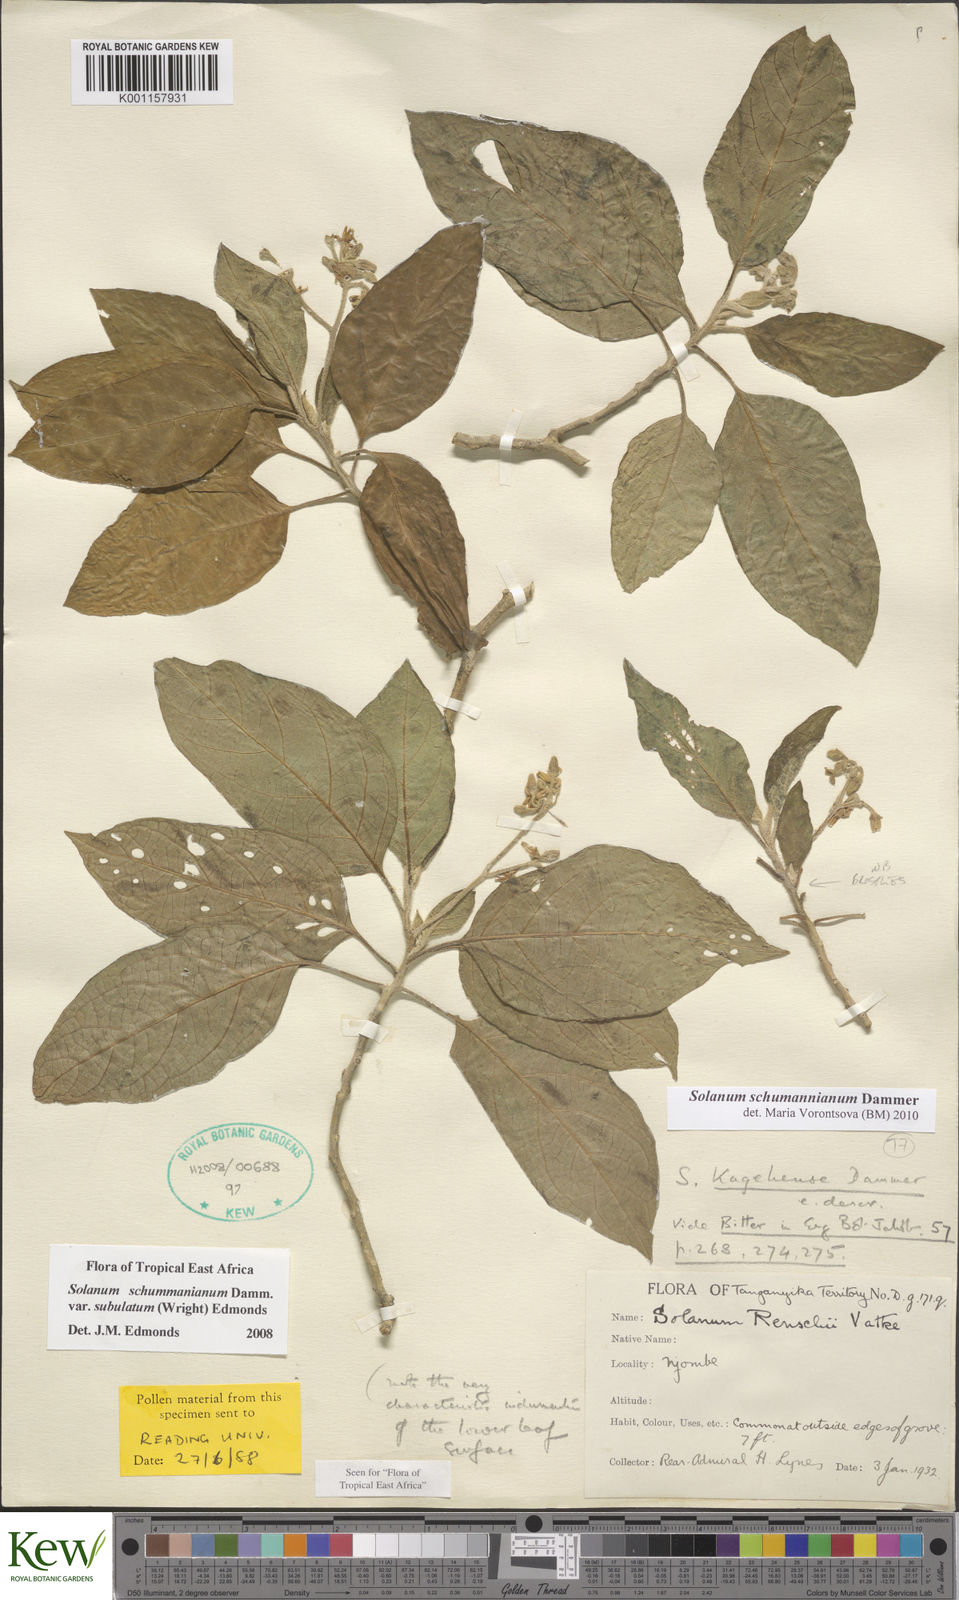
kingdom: Plantae
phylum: Tracheophyta
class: Magnoliopsida
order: Solanales
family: Solanaceae
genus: Solanum
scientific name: Solanum schumannianum
